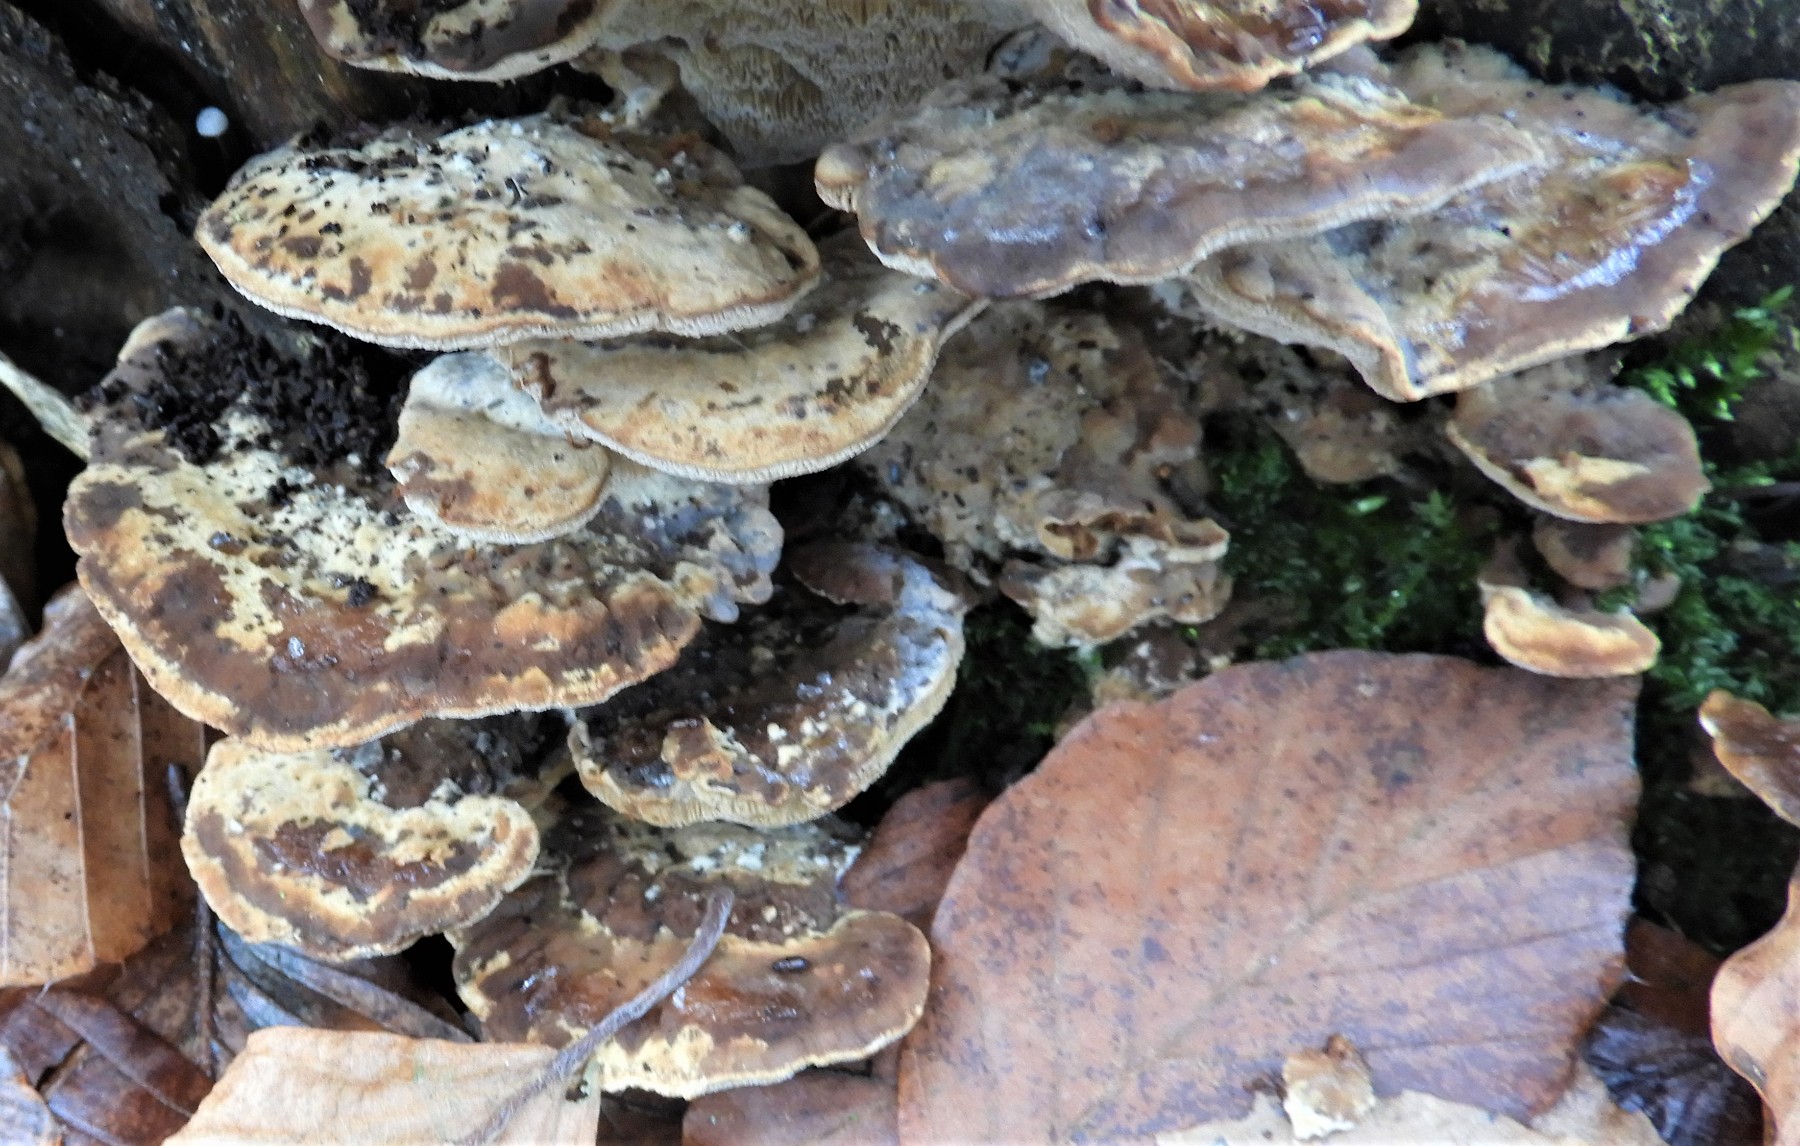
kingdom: Fungi
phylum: Basidiomycota
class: Agaricomycetes
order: Polyporales
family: Phanerochaetaceae
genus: Bjerkandera
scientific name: Bjerkandera fumosa
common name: grågul sodporesvamp
